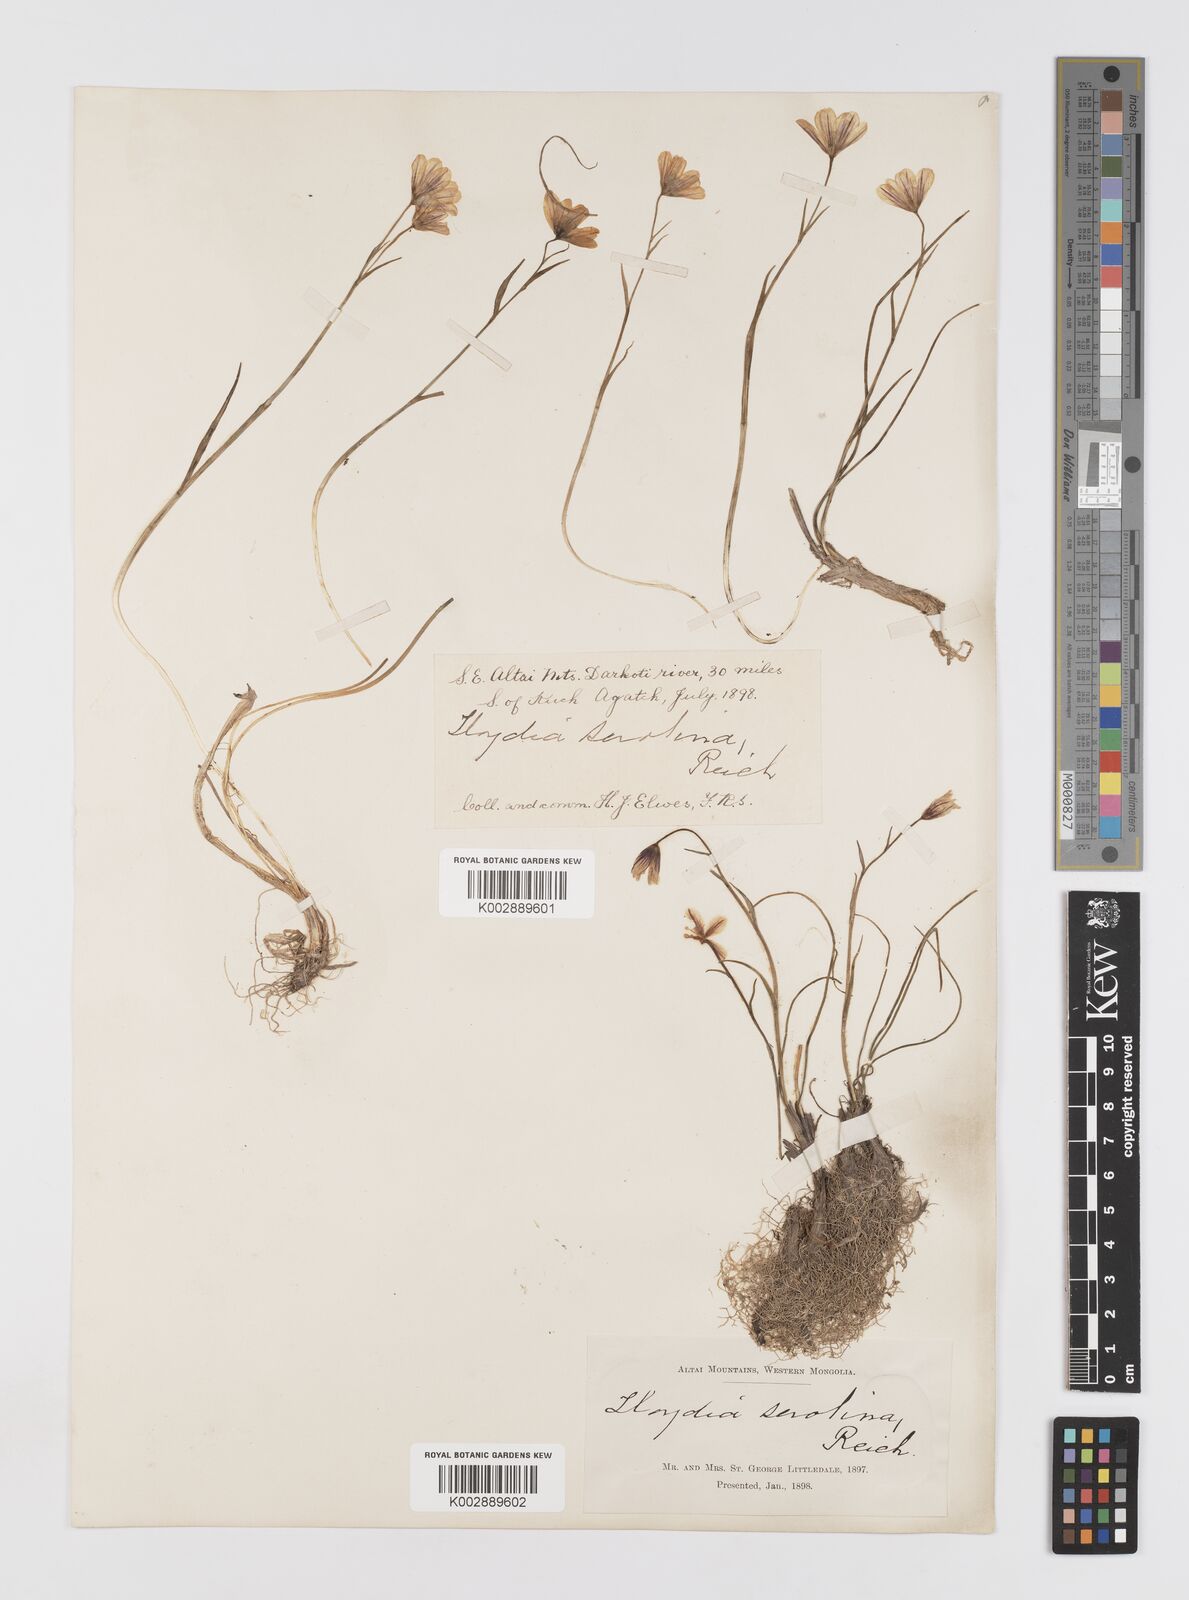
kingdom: Plantae
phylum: Tracheophyta
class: Liliopsida
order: Liliales
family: Liliaceae
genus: Gagea
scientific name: Gagea serotina
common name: Snowdon lily
